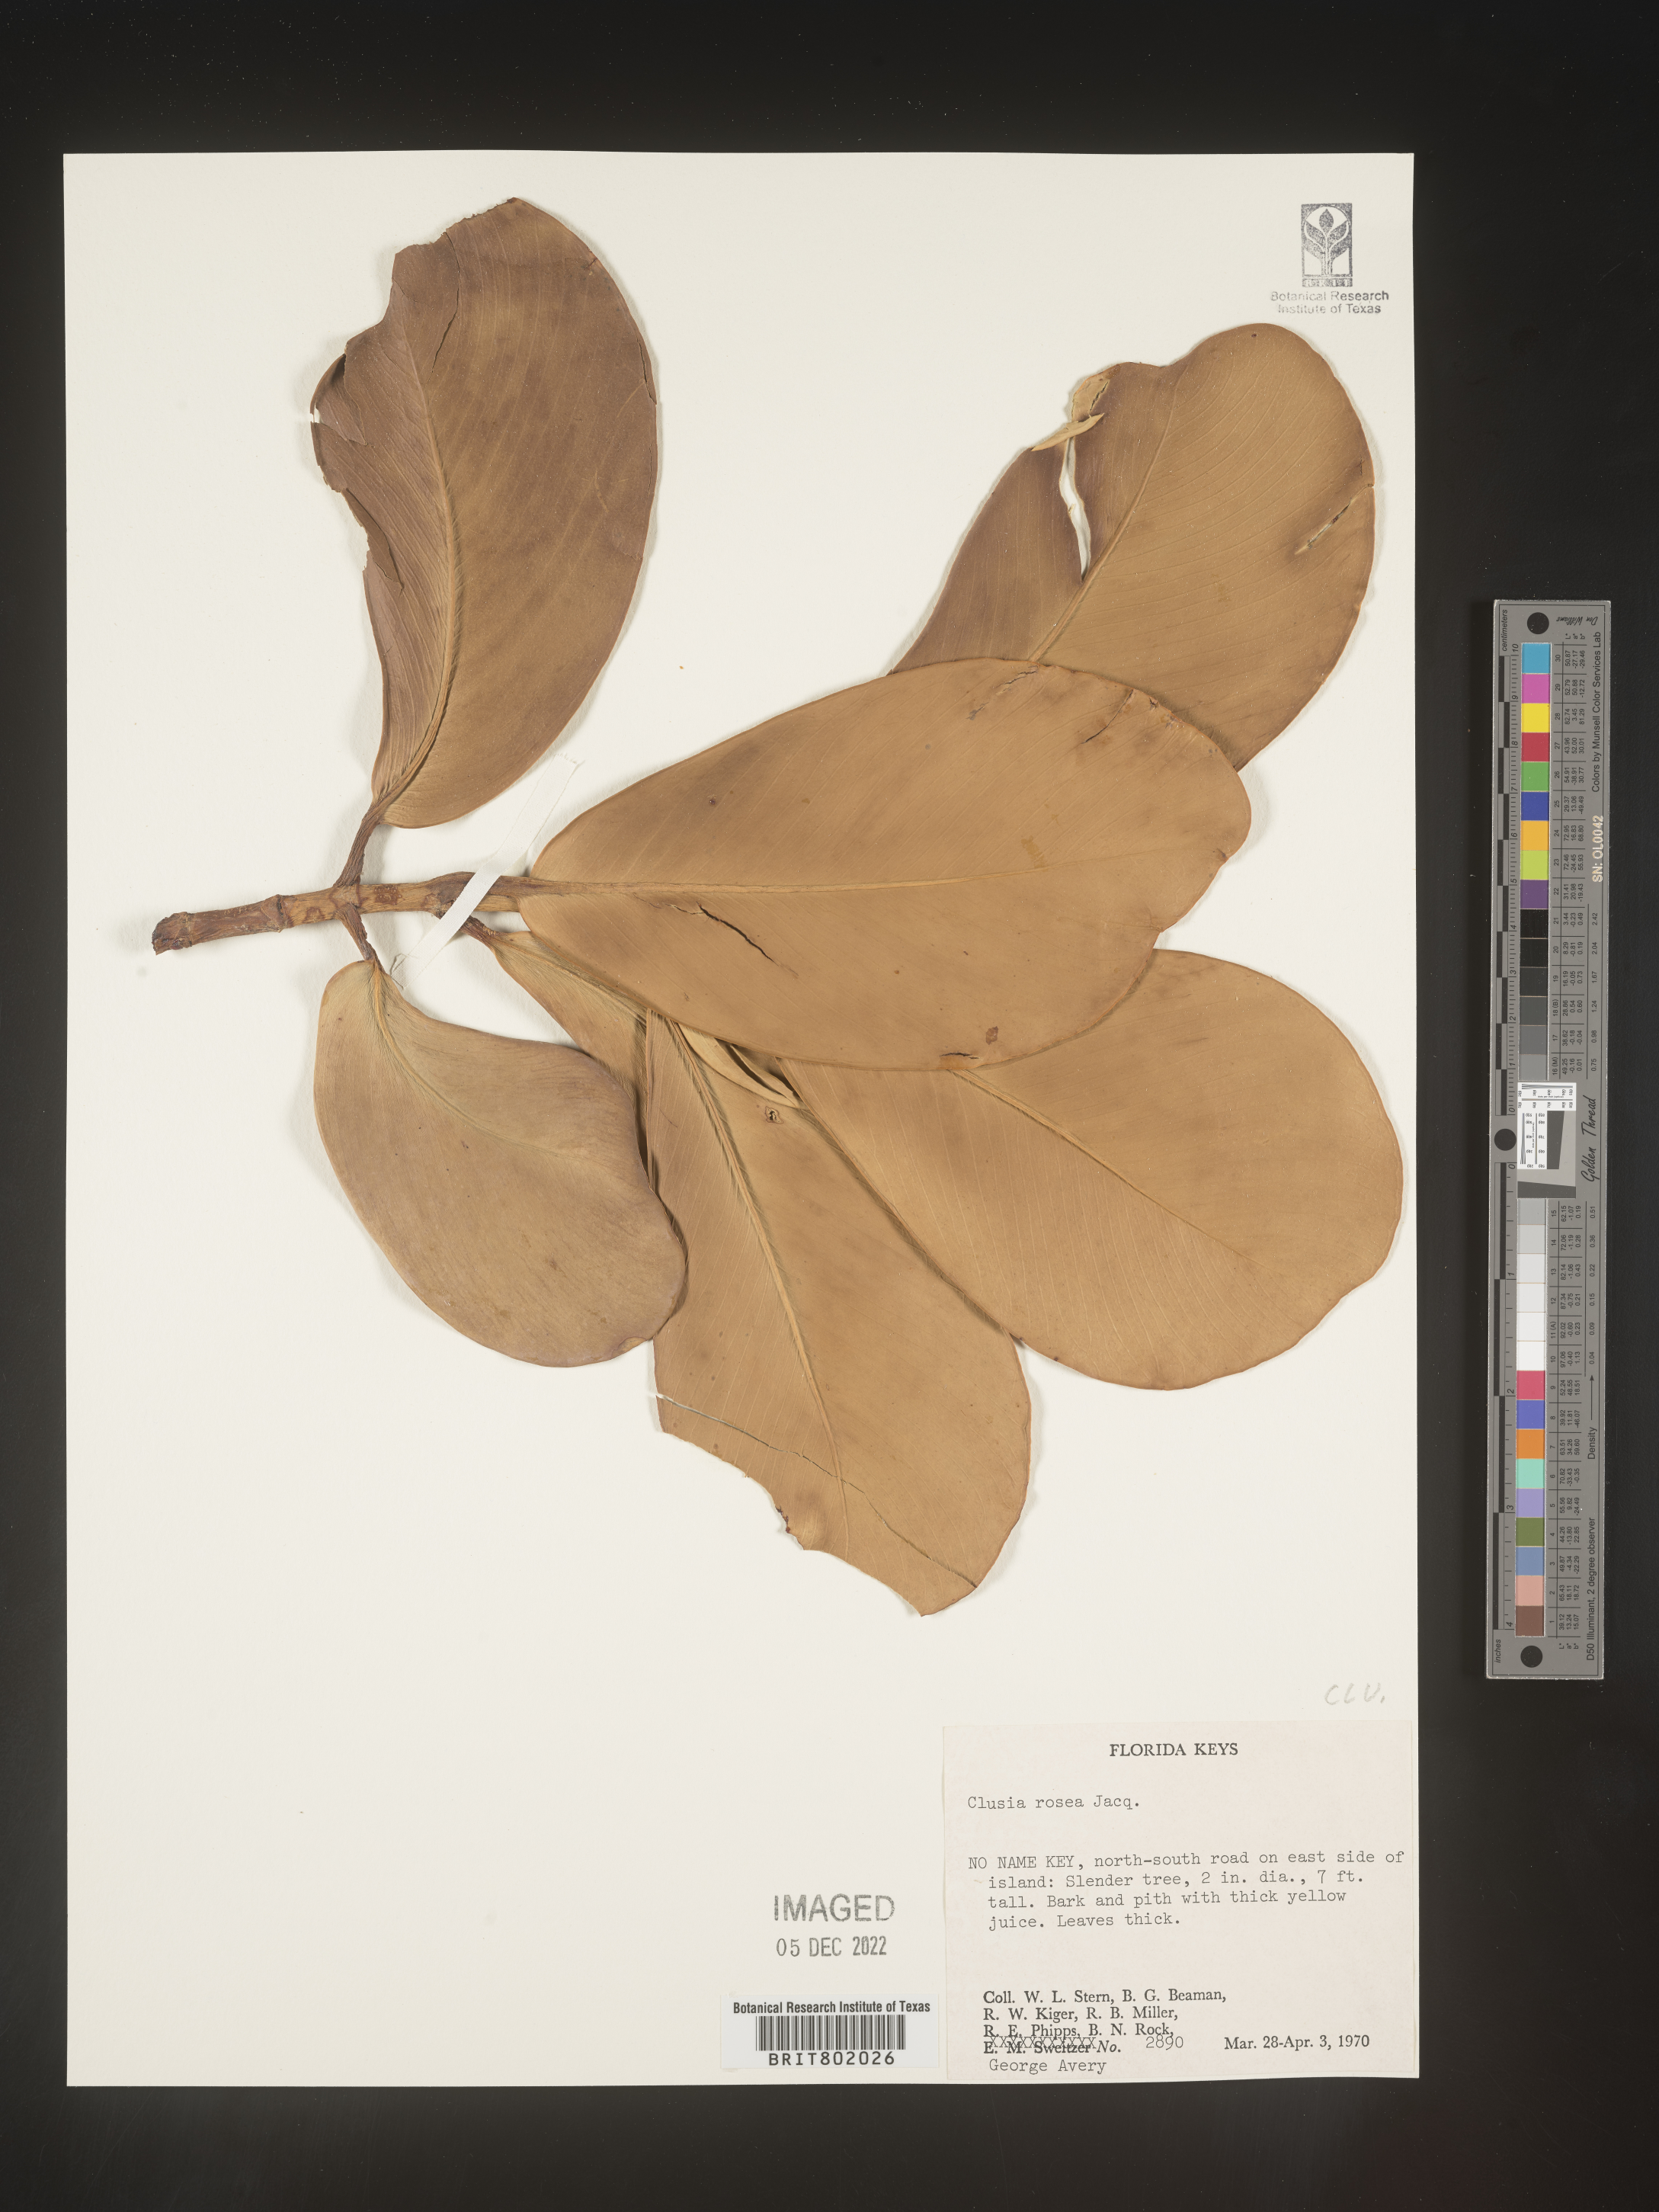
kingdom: Plantae
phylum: Tracheophyta
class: Magnoliopsida
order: Malpighiales
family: Clusiaceae
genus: Clusia
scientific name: Clusia
